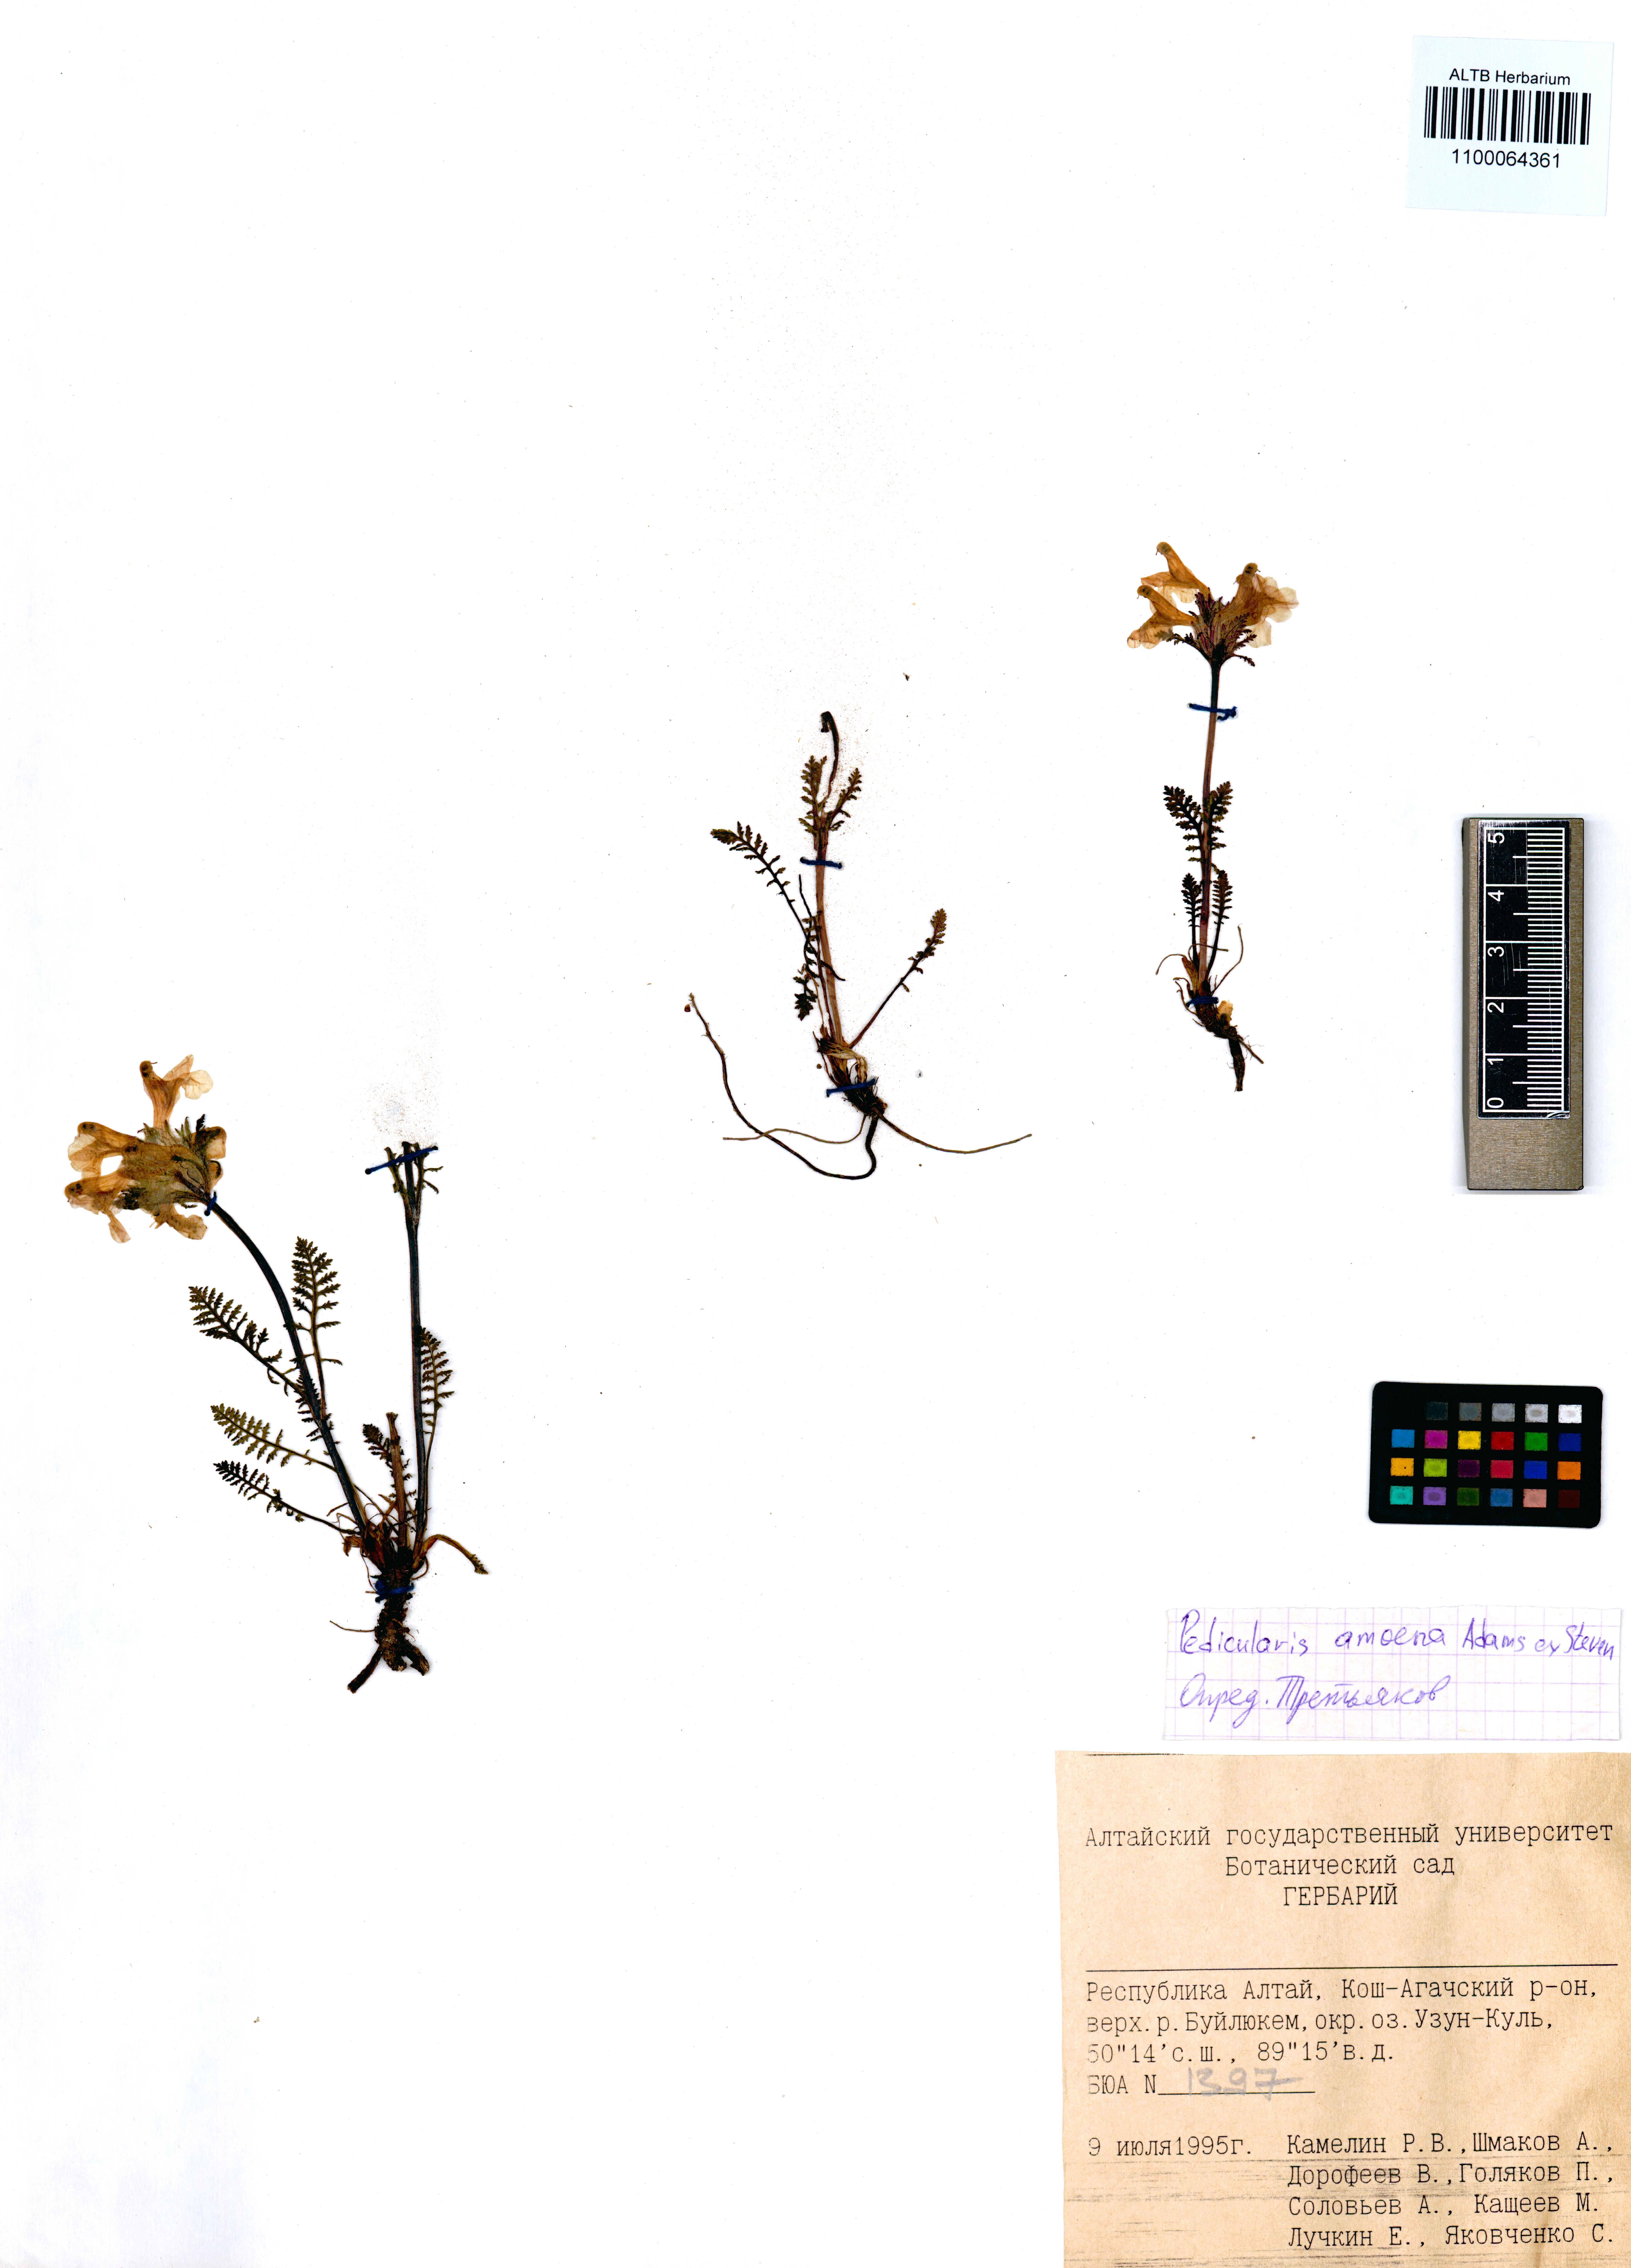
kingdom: Plantae
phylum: Tracheophyta
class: Magnoliopsida
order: Lamiales
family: Orobanchaceae
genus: Pedicularis
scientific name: Pedicularis amoena
